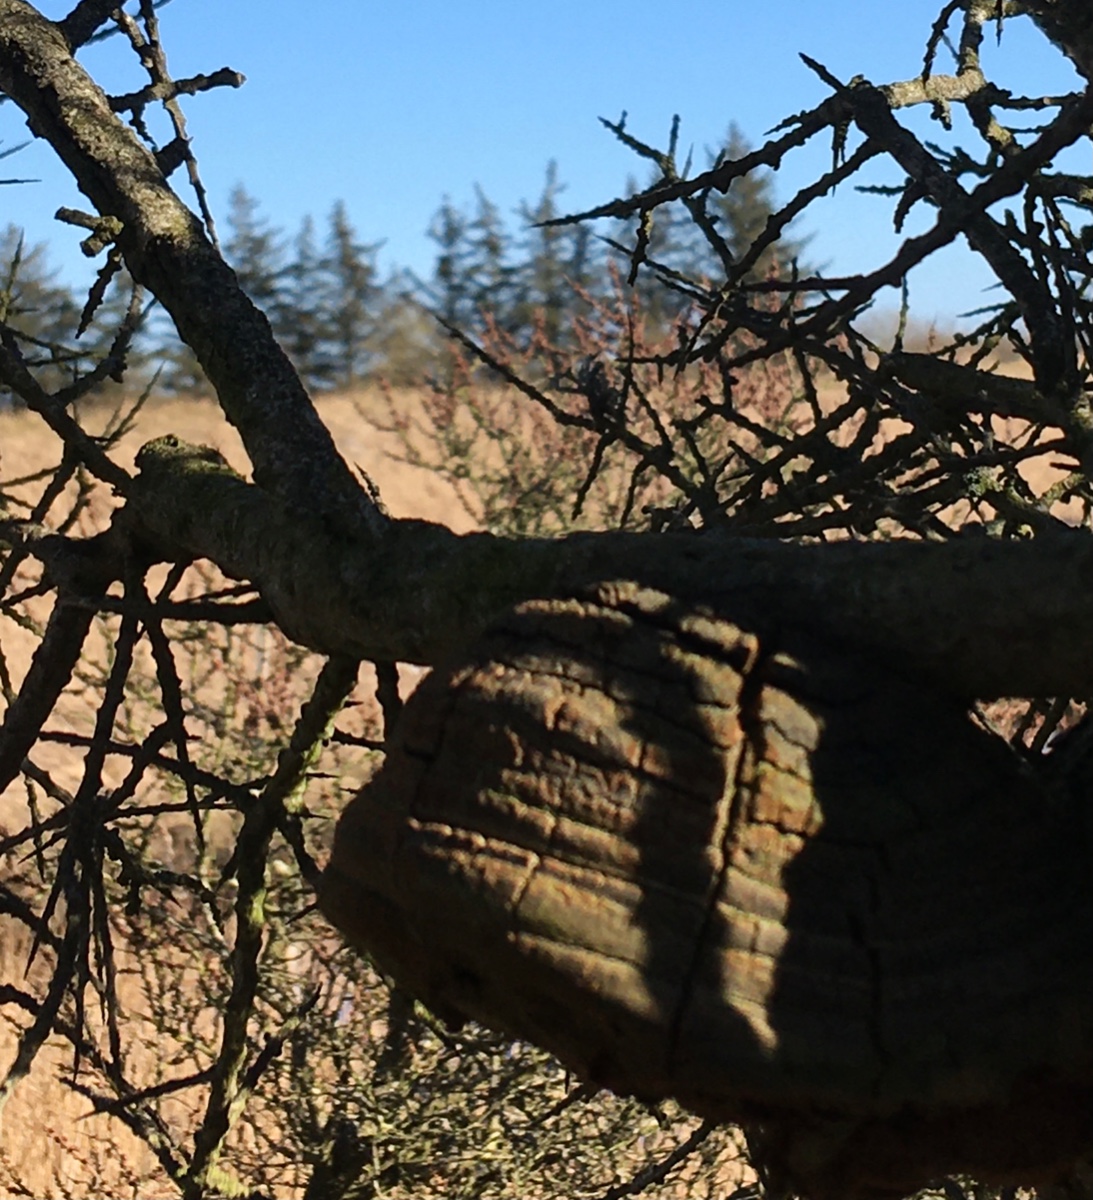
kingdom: Fungi
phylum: Basidiomycota
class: Agaricomycetes
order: Hymenochaetales
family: Hymenochaetaceae
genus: Fomitiporia
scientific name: Fomitiporia hippophaeicola
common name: havtorn-ildporesvamp
